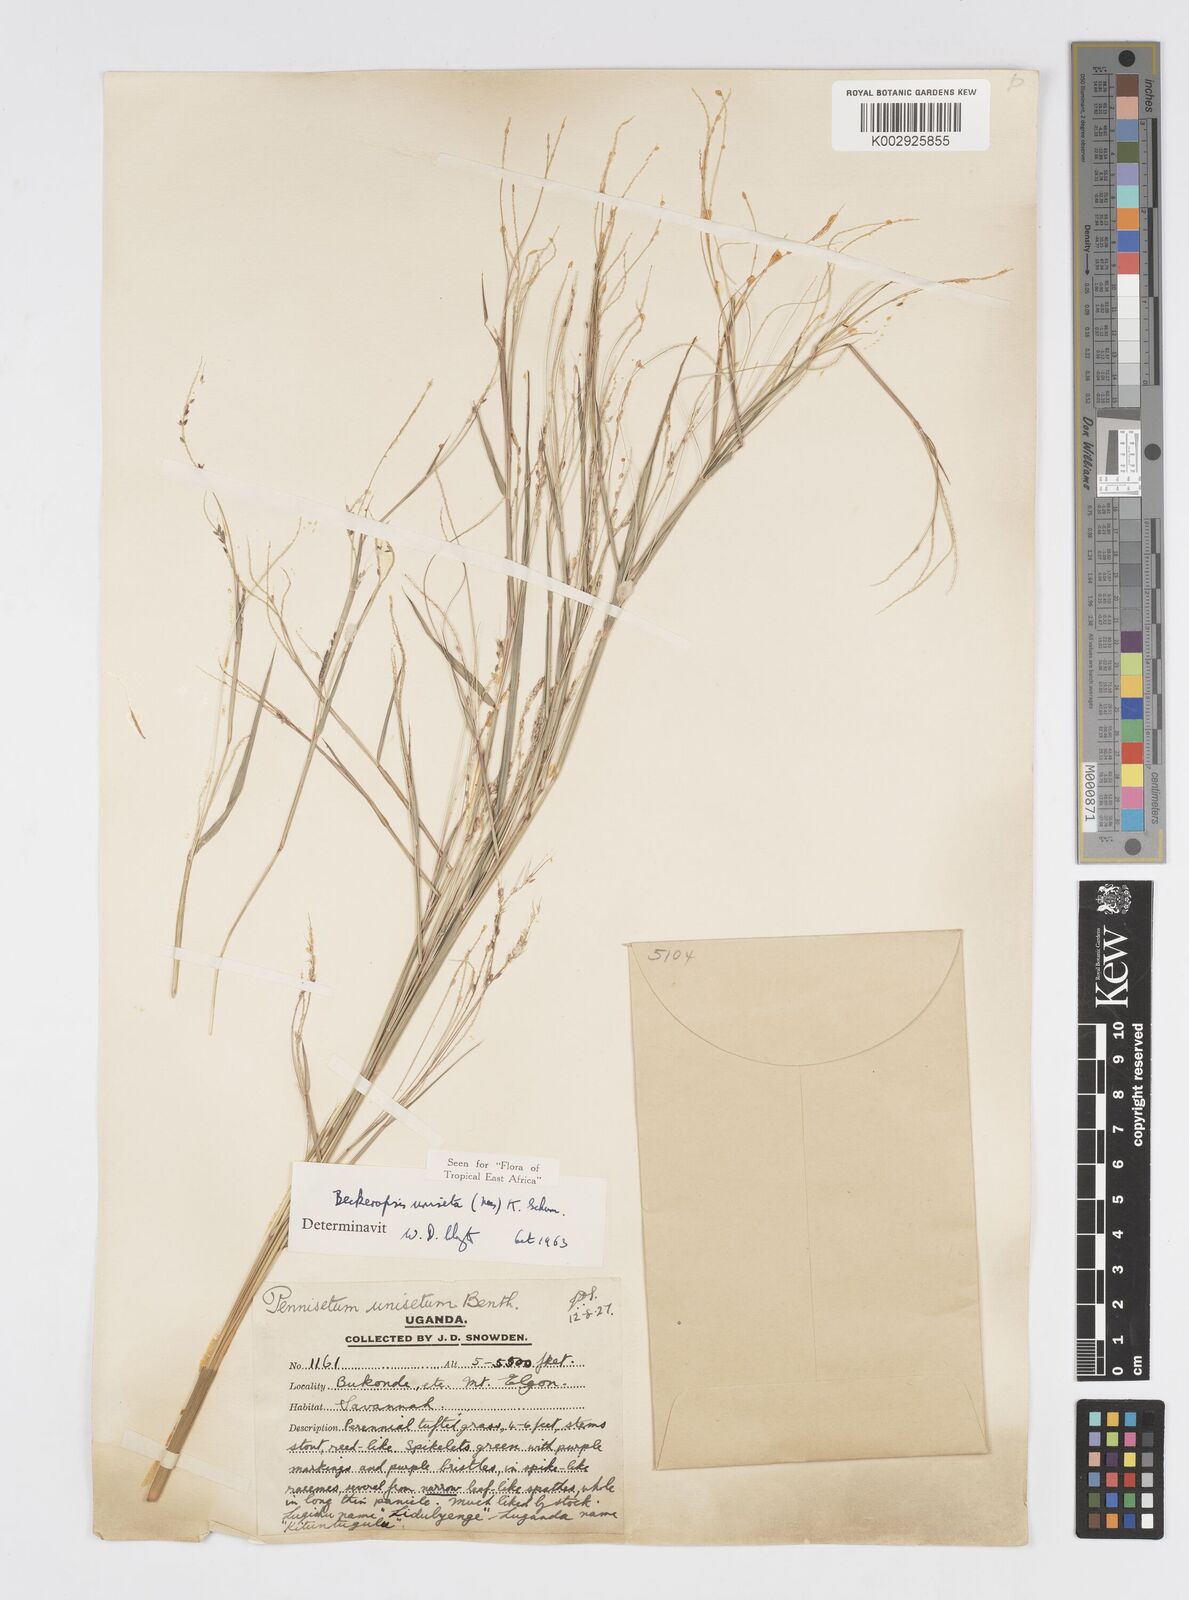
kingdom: Plantae
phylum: Tracheophyta
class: Liliopsida
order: Poales
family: Poaceae
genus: Cenchrus
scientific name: Cenchrus unisetus
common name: Natal grass
